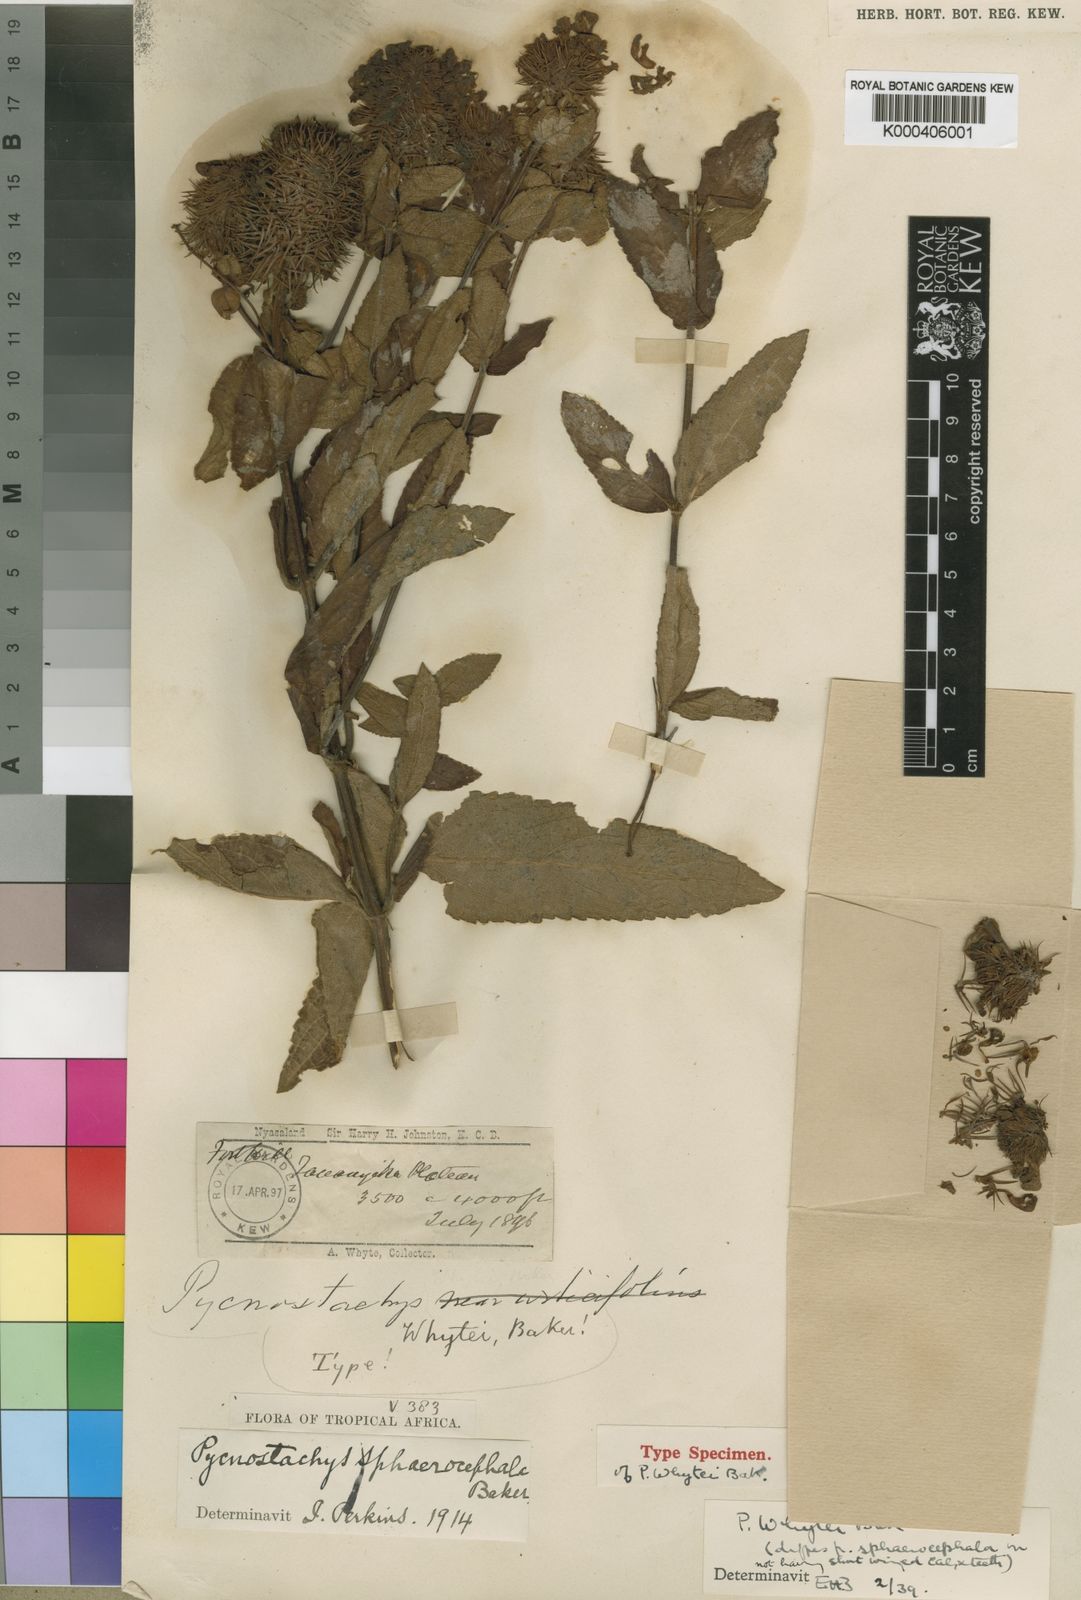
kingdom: Plantae
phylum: Tracheophyta
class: Magnoliopsida
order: Lamiales
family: Lamiaceae
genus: Coleus
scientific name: Coleus sphaerocephalus
